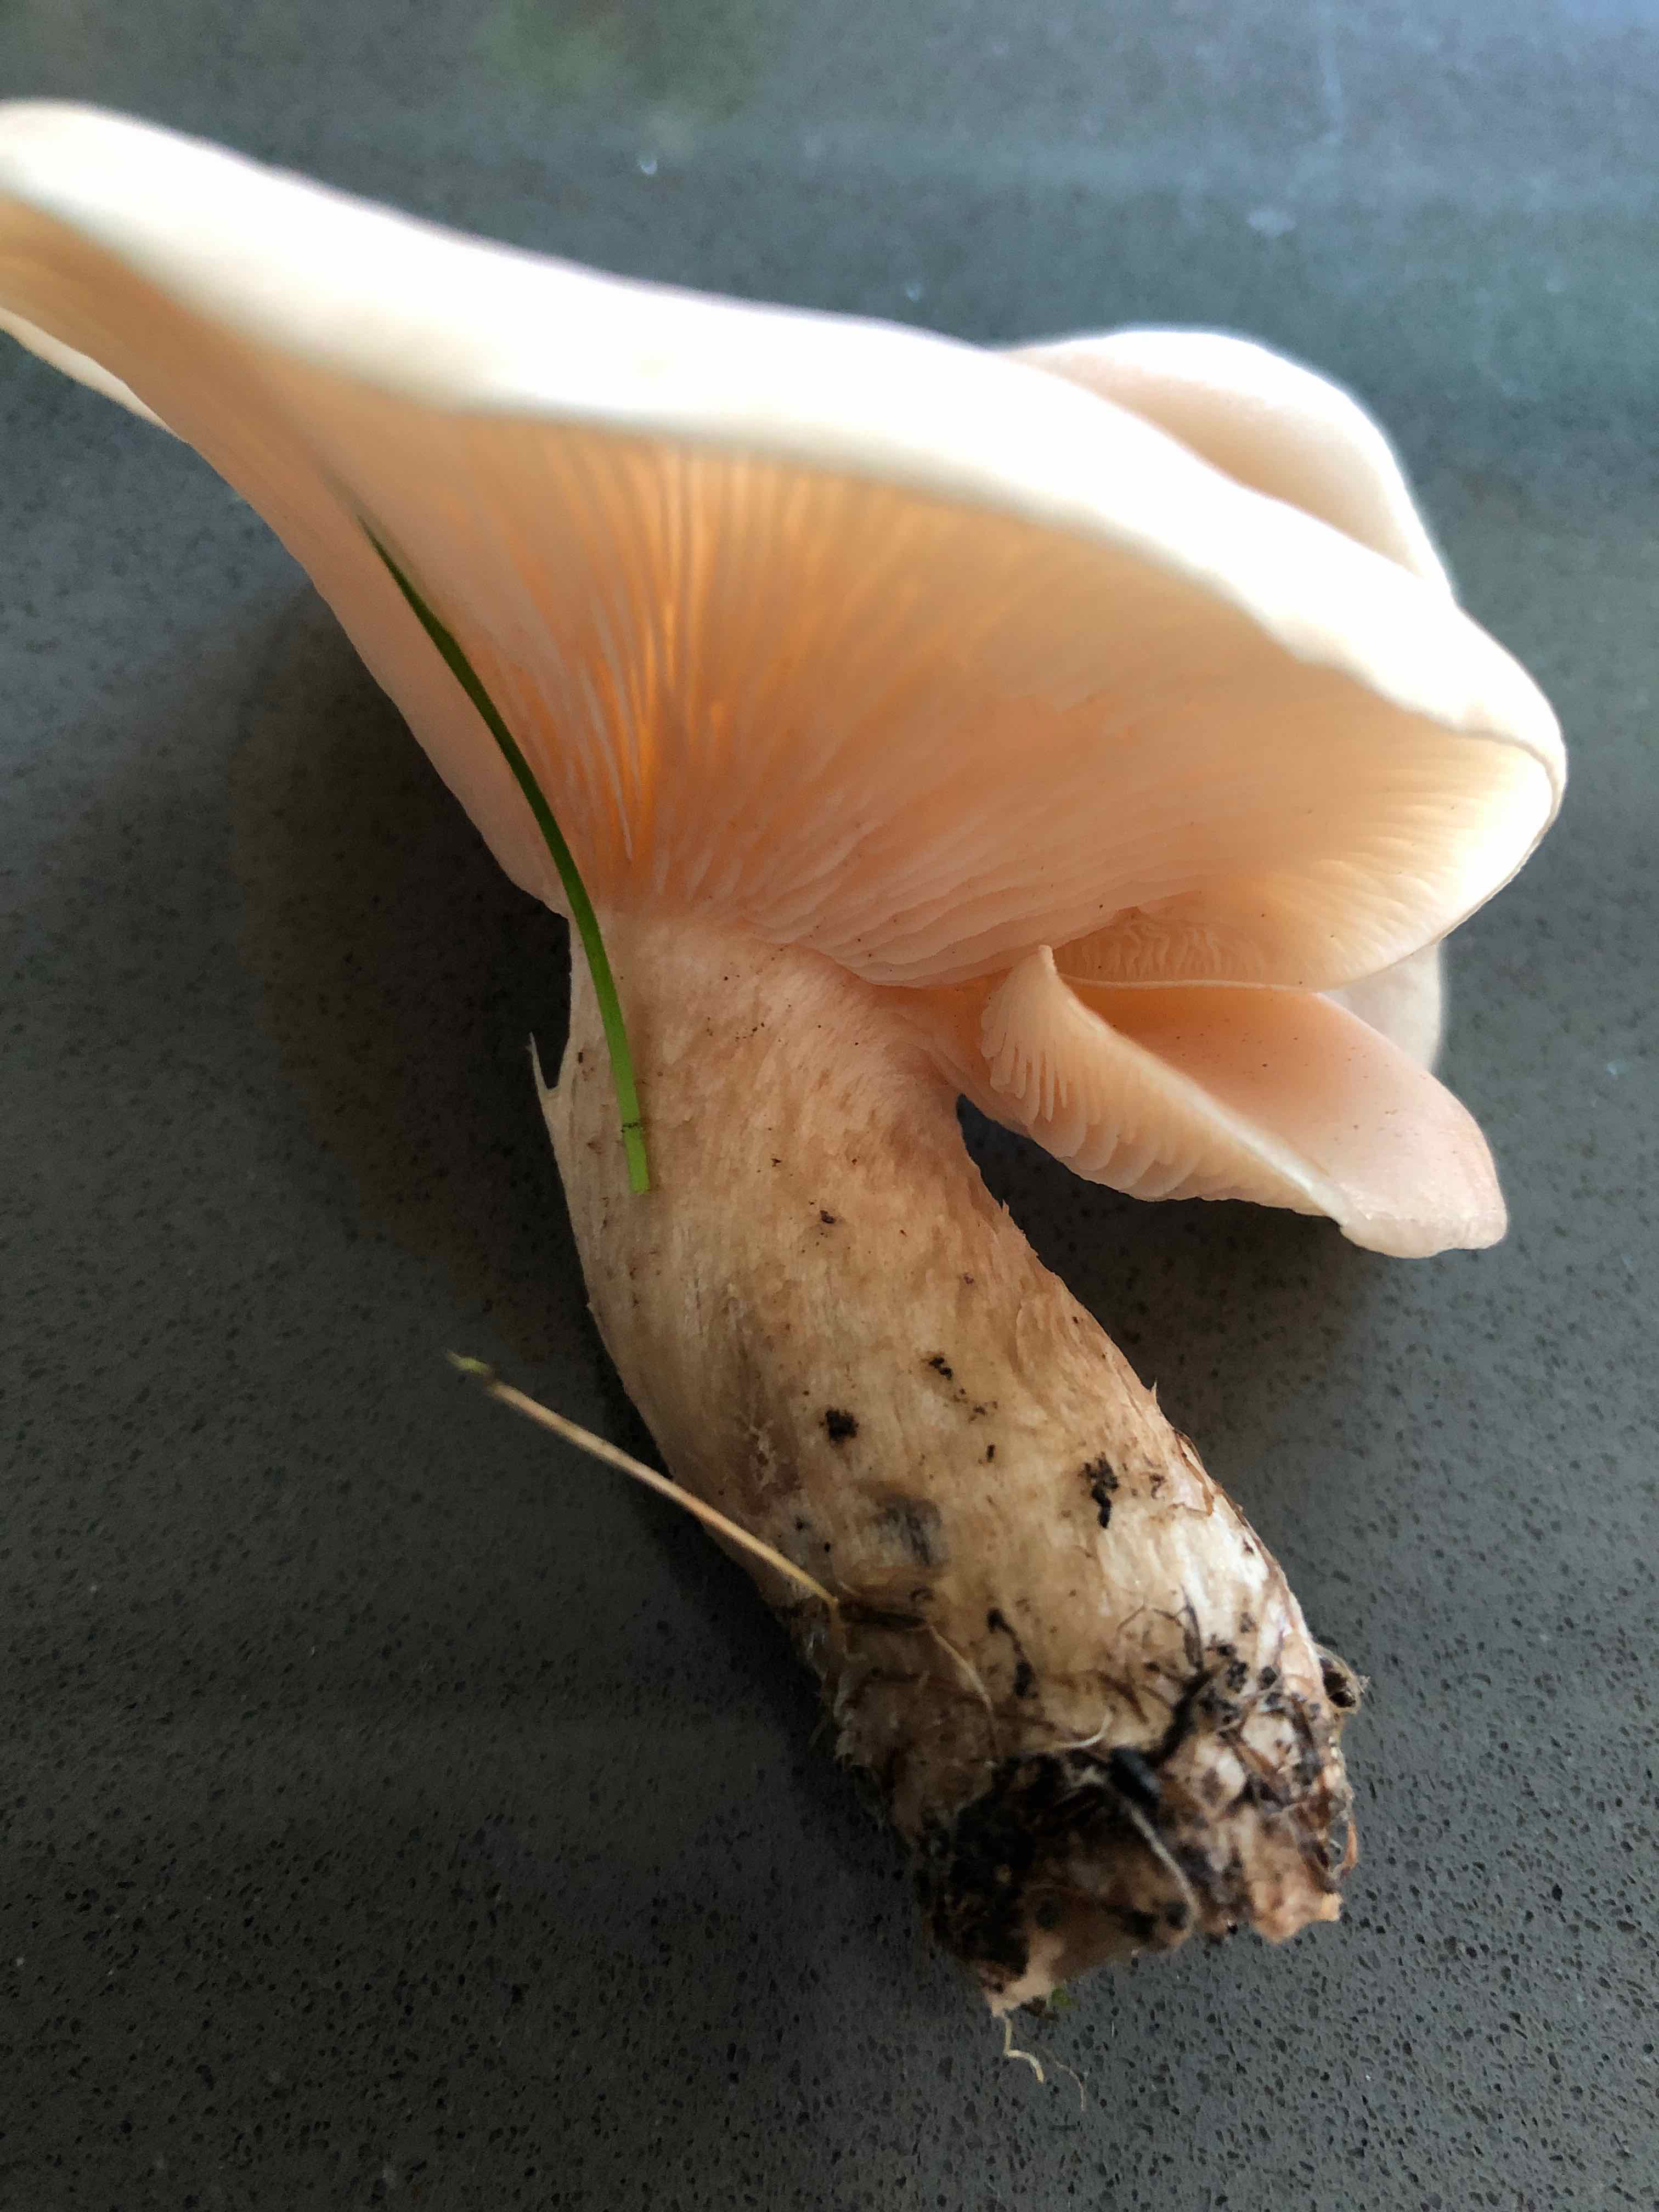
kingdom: Fungi
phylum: Basidiomycota
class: Agaricomycetes
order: Agaricales
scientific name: Agaricales
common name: champignonordenen
